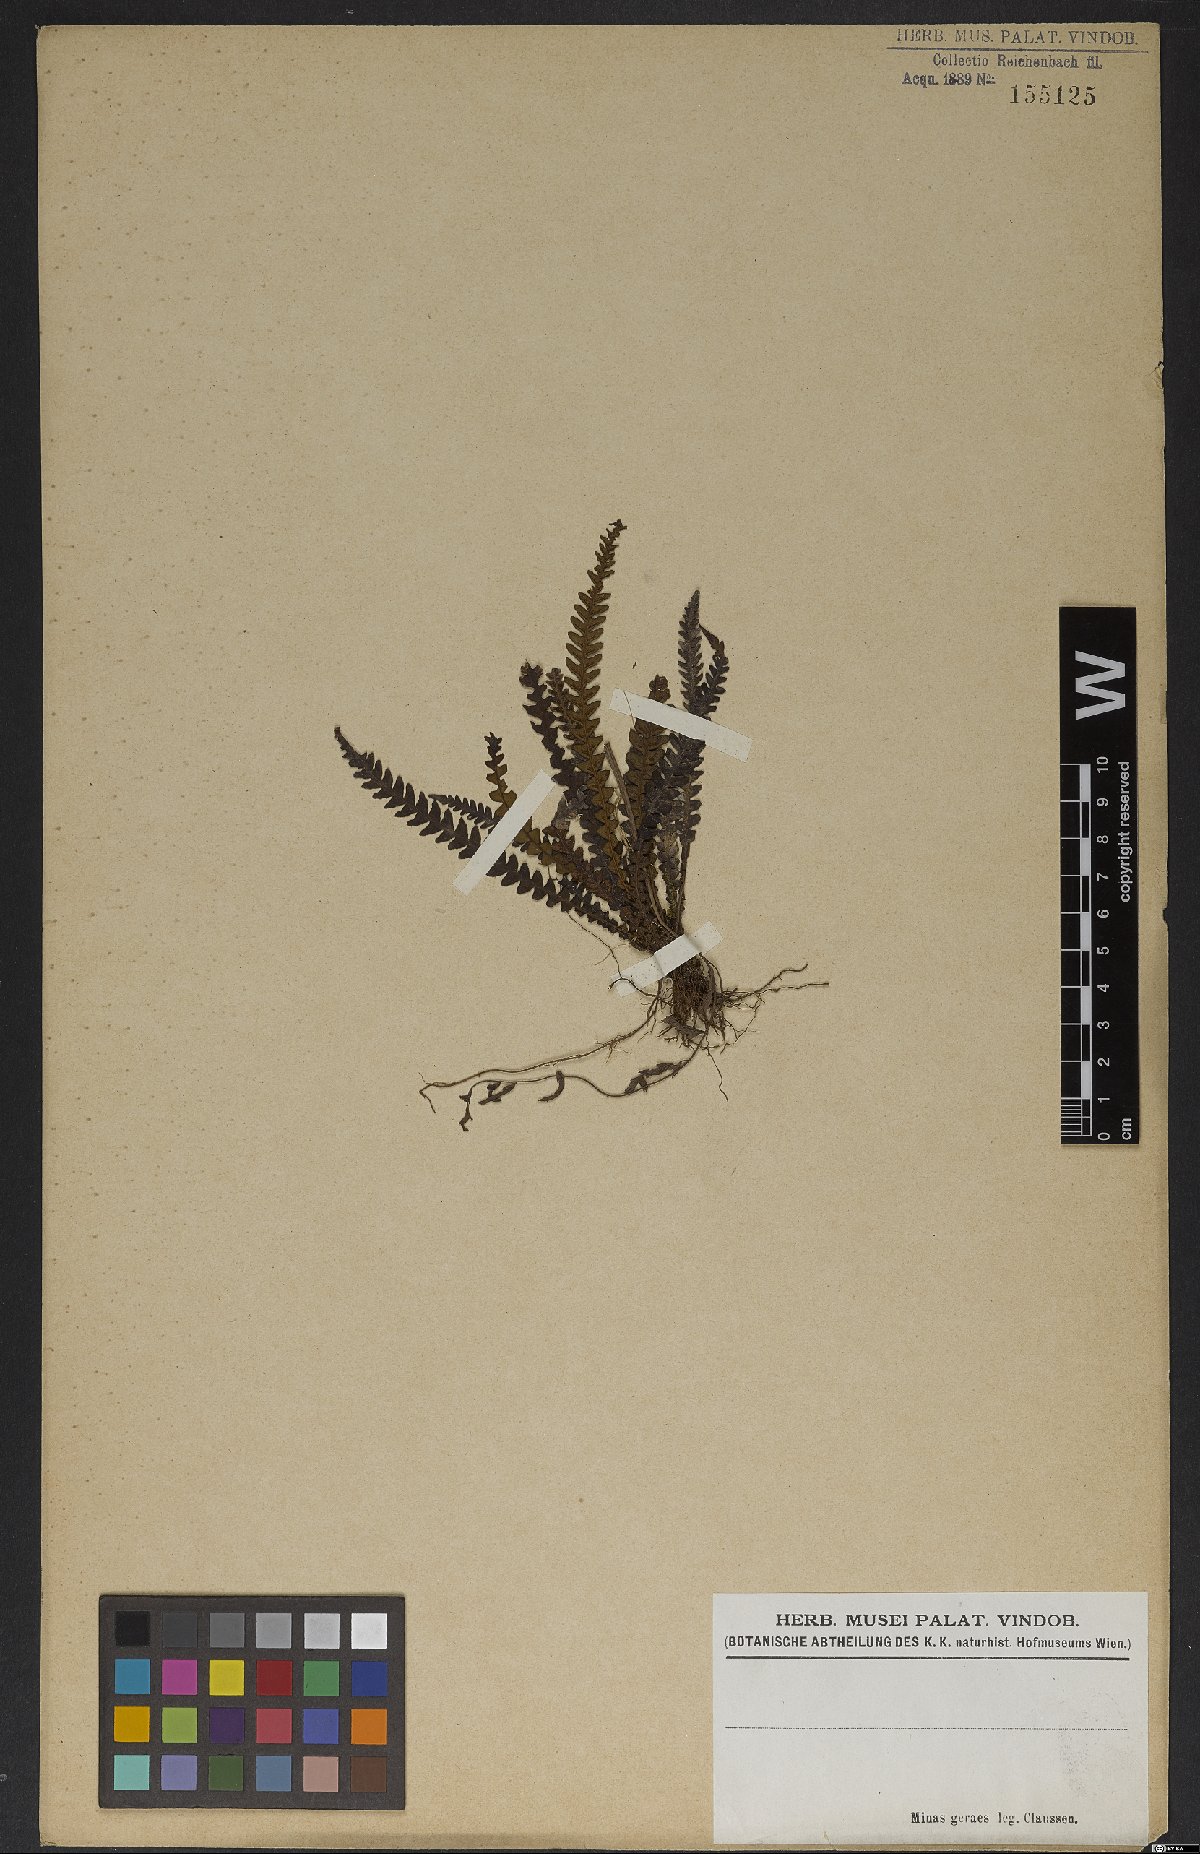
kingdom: Plantae
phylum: Tracheophyta
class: Polypodiopsida
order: Polypodiales
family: Blechnaceae
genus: Blechnum
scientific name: Blechnum
